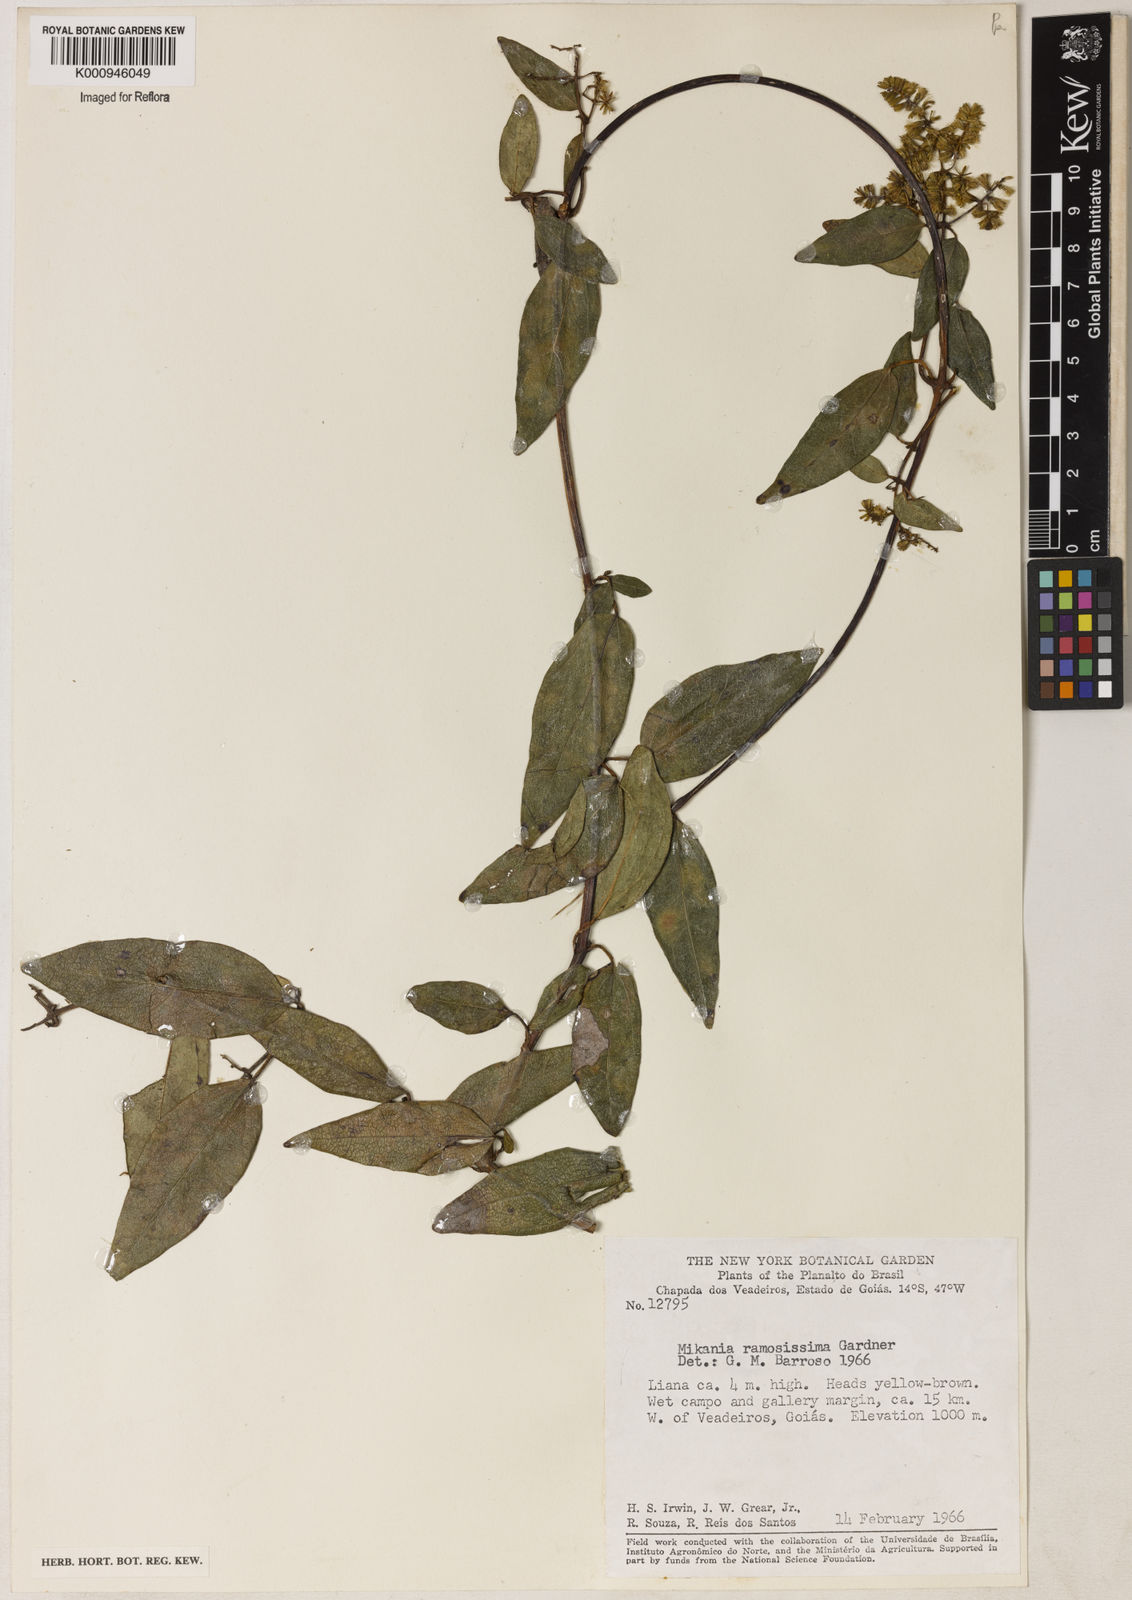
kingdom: Plantae
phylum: Tracheophyta
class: Magnoliopsida
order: Asterales
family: Asteraceae
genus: Mikania
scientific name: Mikania ramosissima
